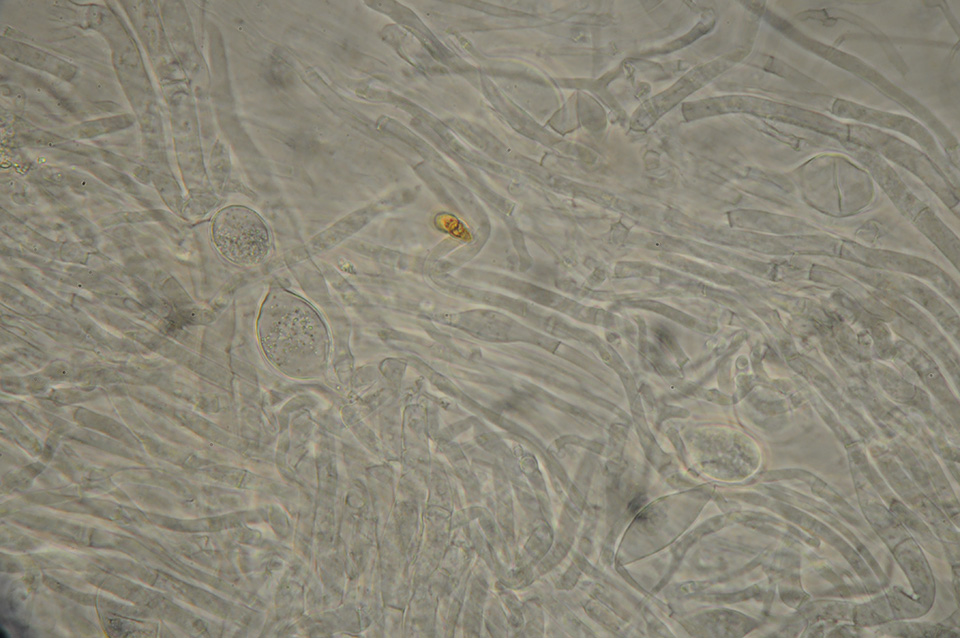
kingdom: Fungi
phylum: Basidiomycota
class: Agaricomycetes
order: Agaricales
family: Tricholomataceae
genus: Clitocybe
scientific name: Clitocybe phaeophthalma
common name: stinkende tragthat
